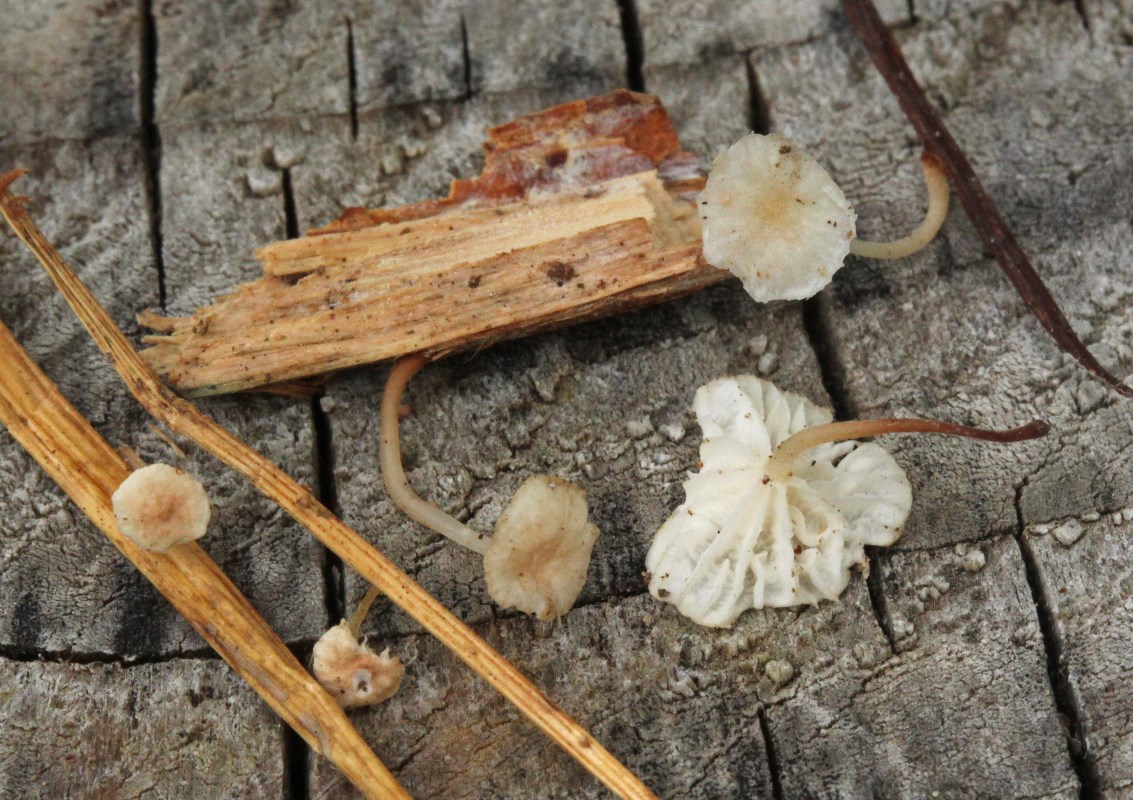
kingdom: Fungi
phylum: Basidiomycota
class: Agaricomycetes
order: Agaricales
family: Omphalotaceae
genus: Collybiopsis
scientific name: Collybiopsis vaillantii
